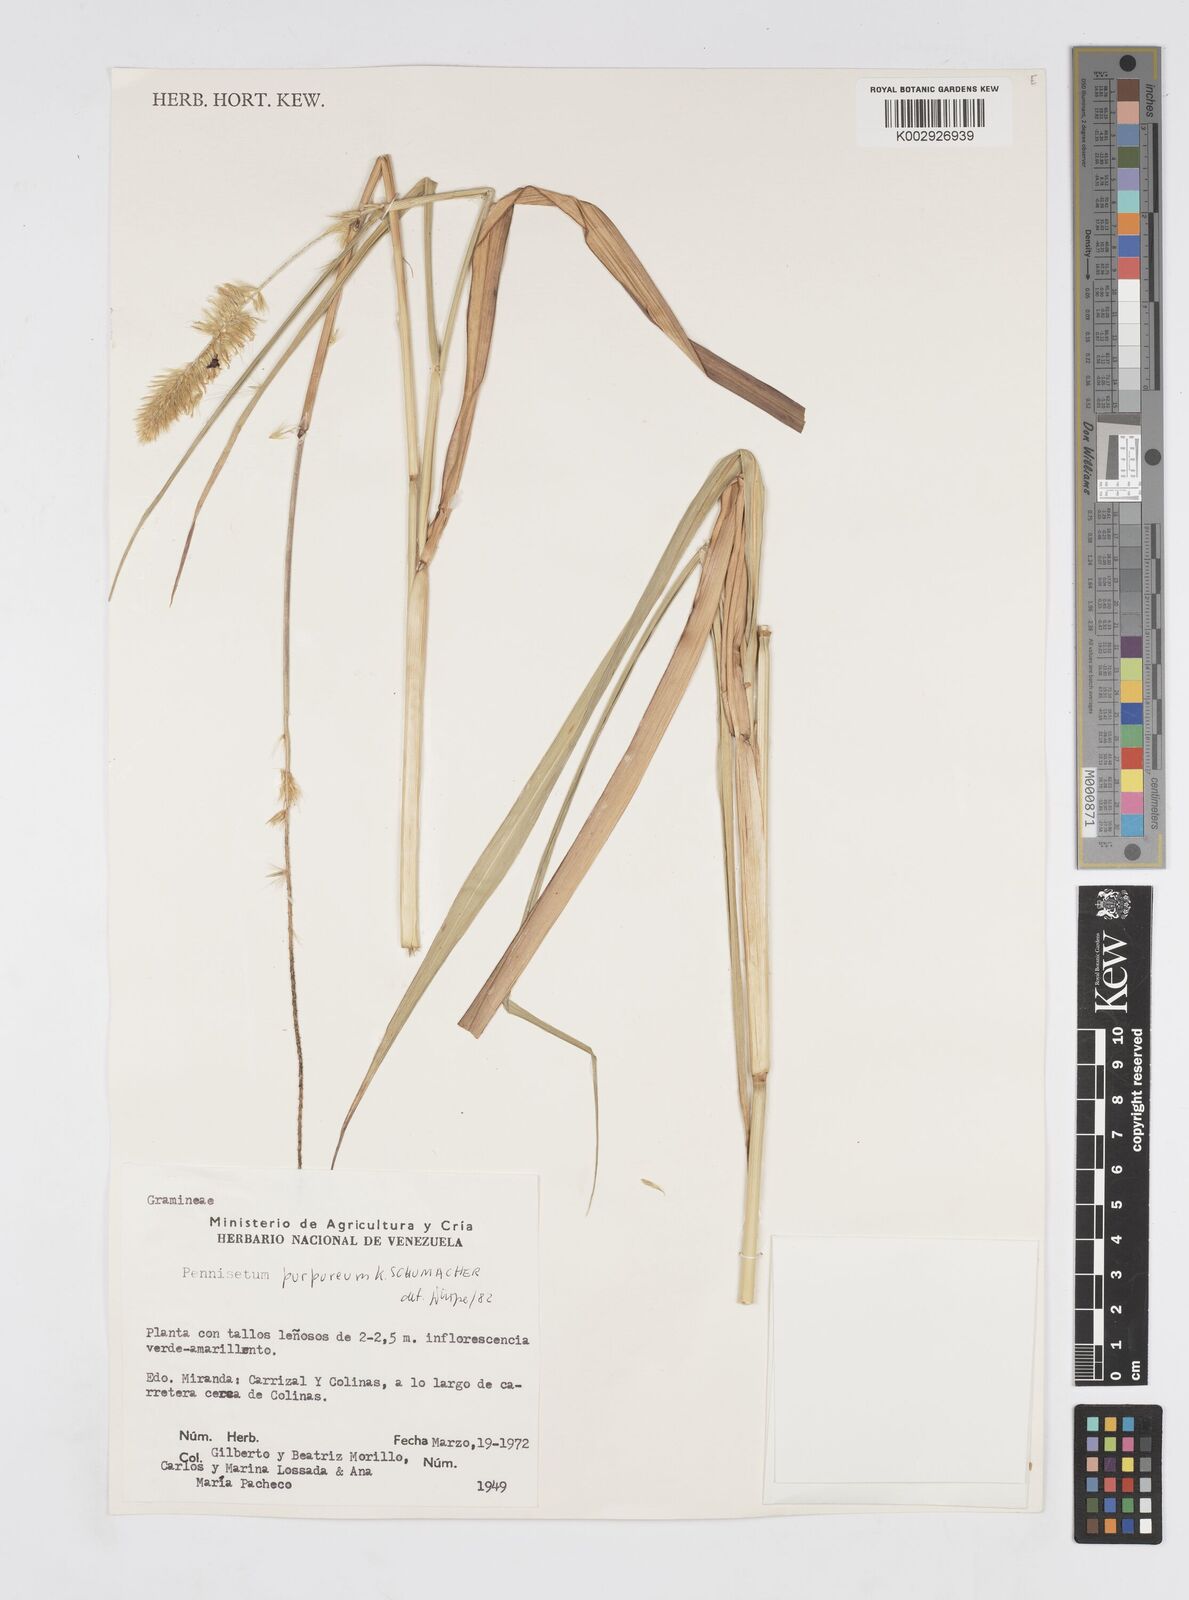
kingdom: Plantae
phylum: Tracheophyta
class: Liliopsida
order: Poales
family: Poaceae
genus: Cenchrus
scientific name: Cenchrus purpureus
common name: Elephant grass
